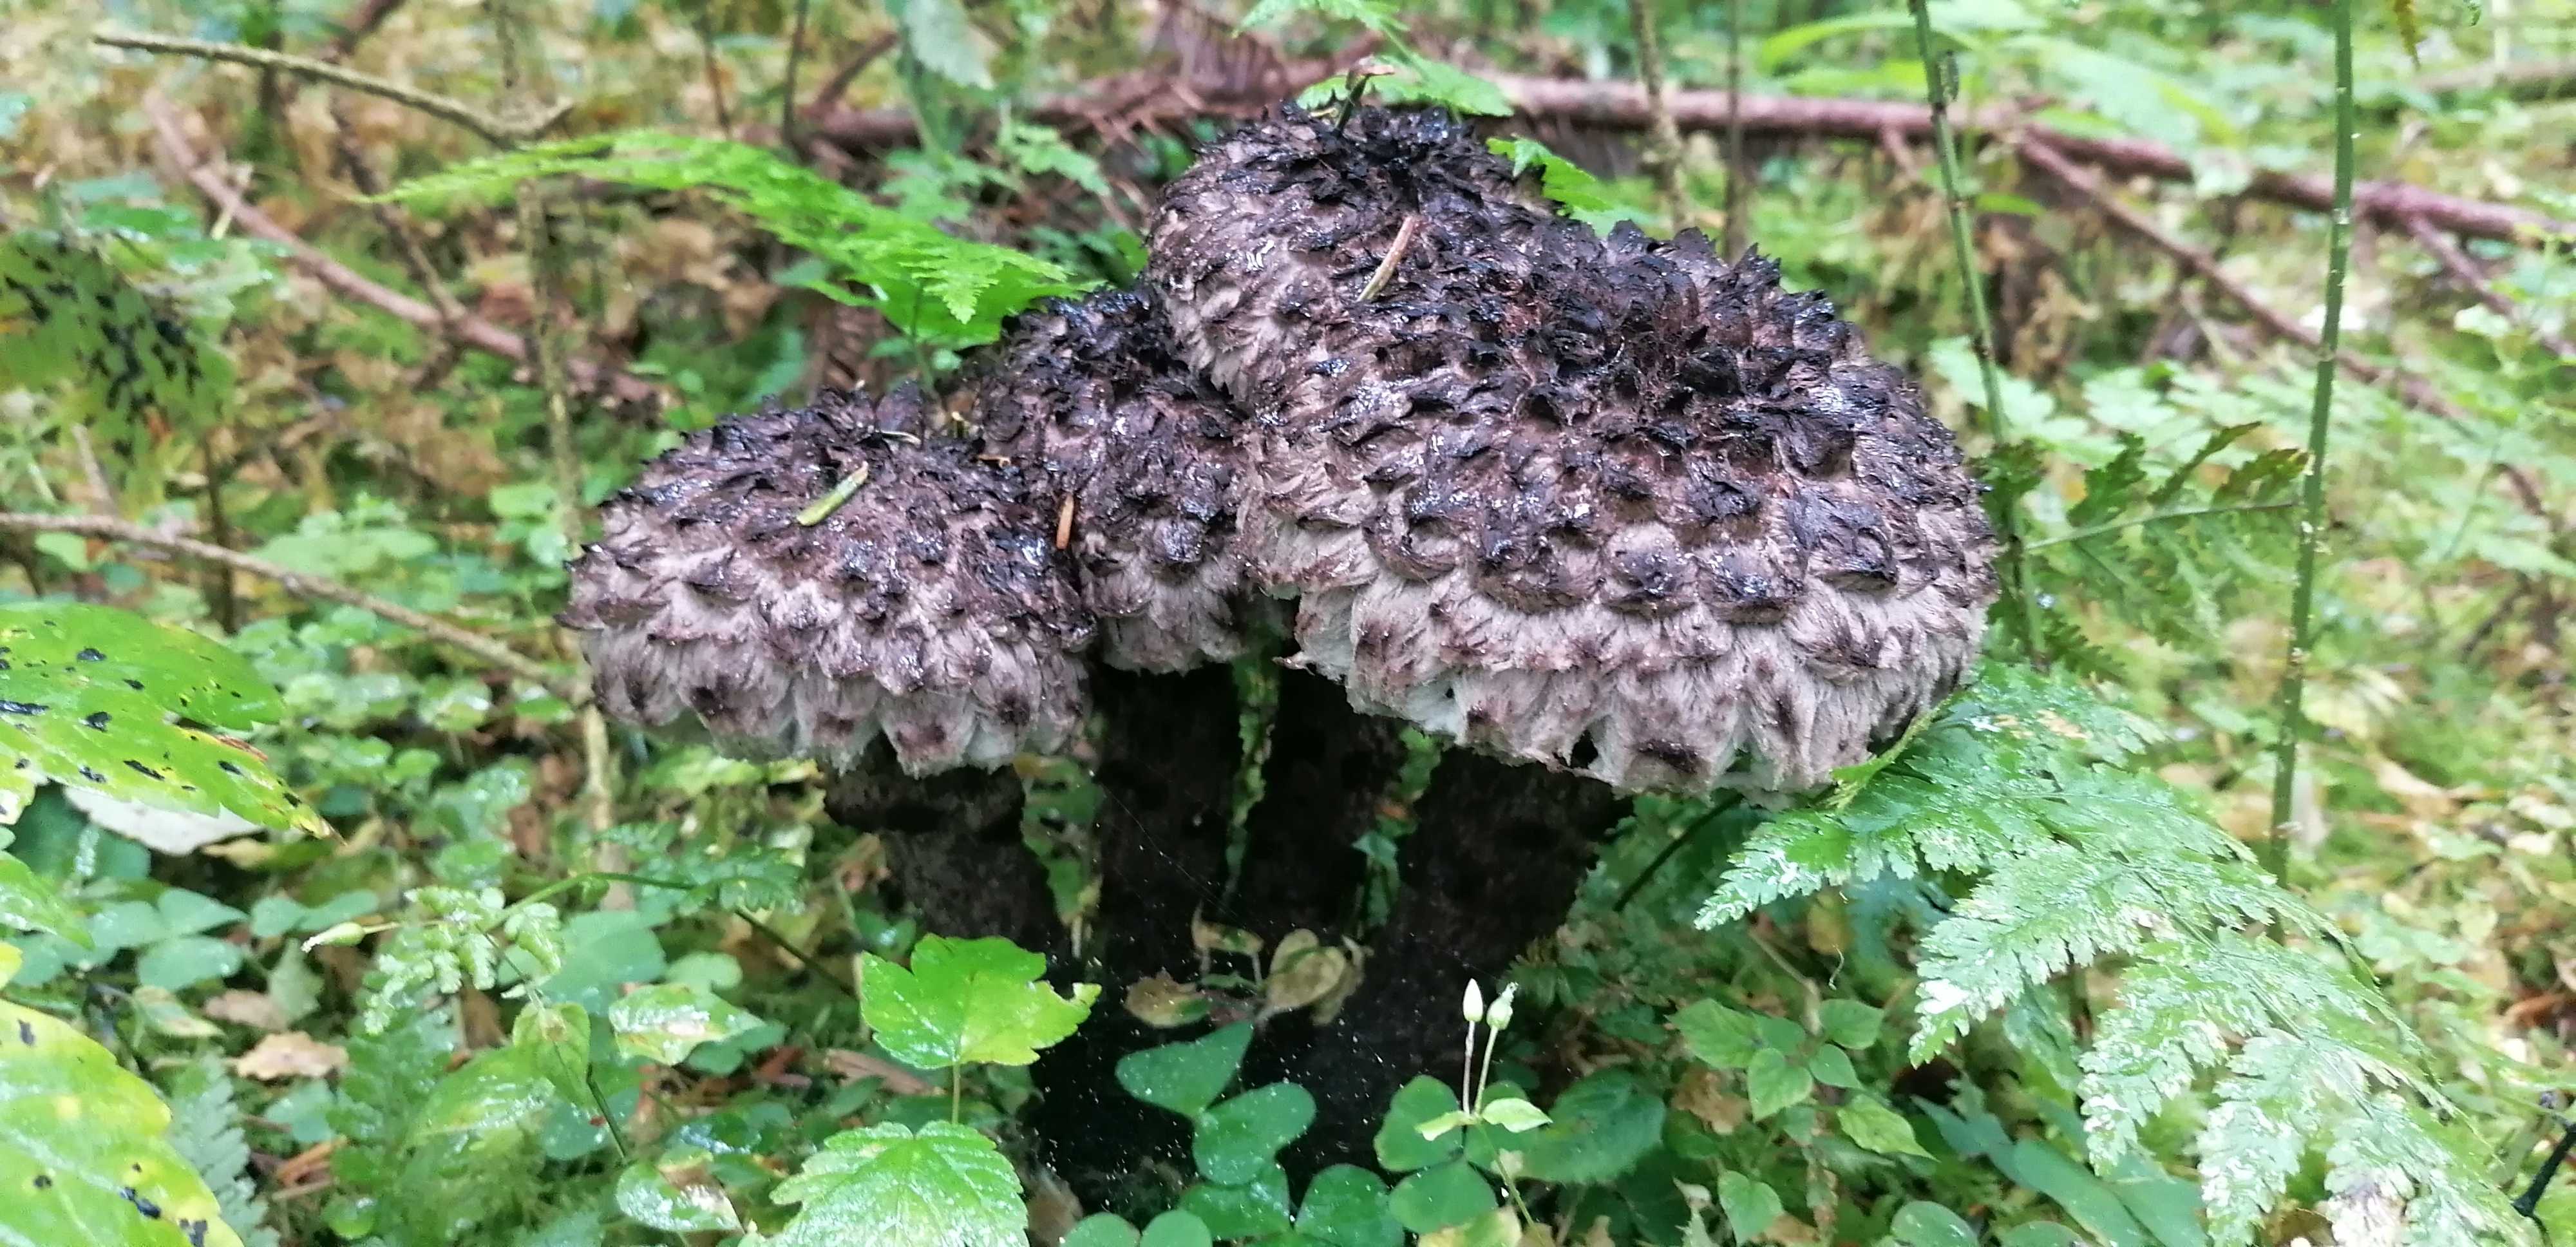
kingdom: Fungi
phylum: Basidiomycota
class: Agaricomycetes
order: Boletales
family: Boletaceae
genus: Strobilomyces
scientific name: Strobilomyces strobilaceus
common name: koglerørhat
